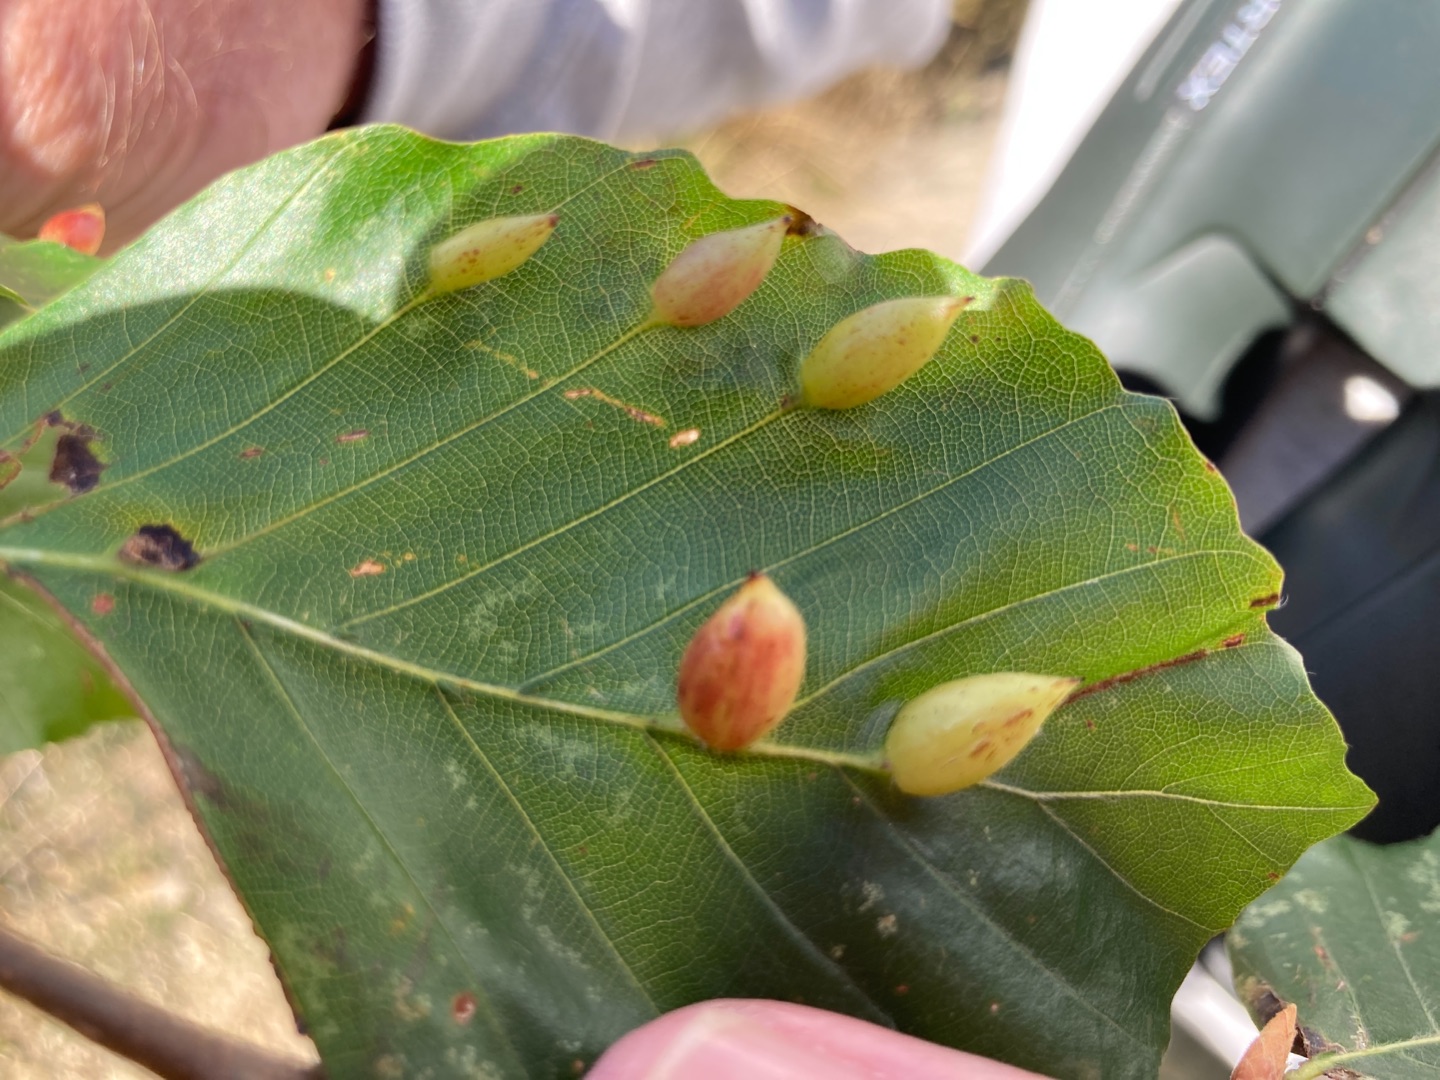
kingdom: Animalia
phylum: Arthropoda
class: Insecta
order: Diptera
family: Cecidomyiidae
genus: Mikiola
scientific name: Mikiola fagi
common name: Bøgegalmyg
